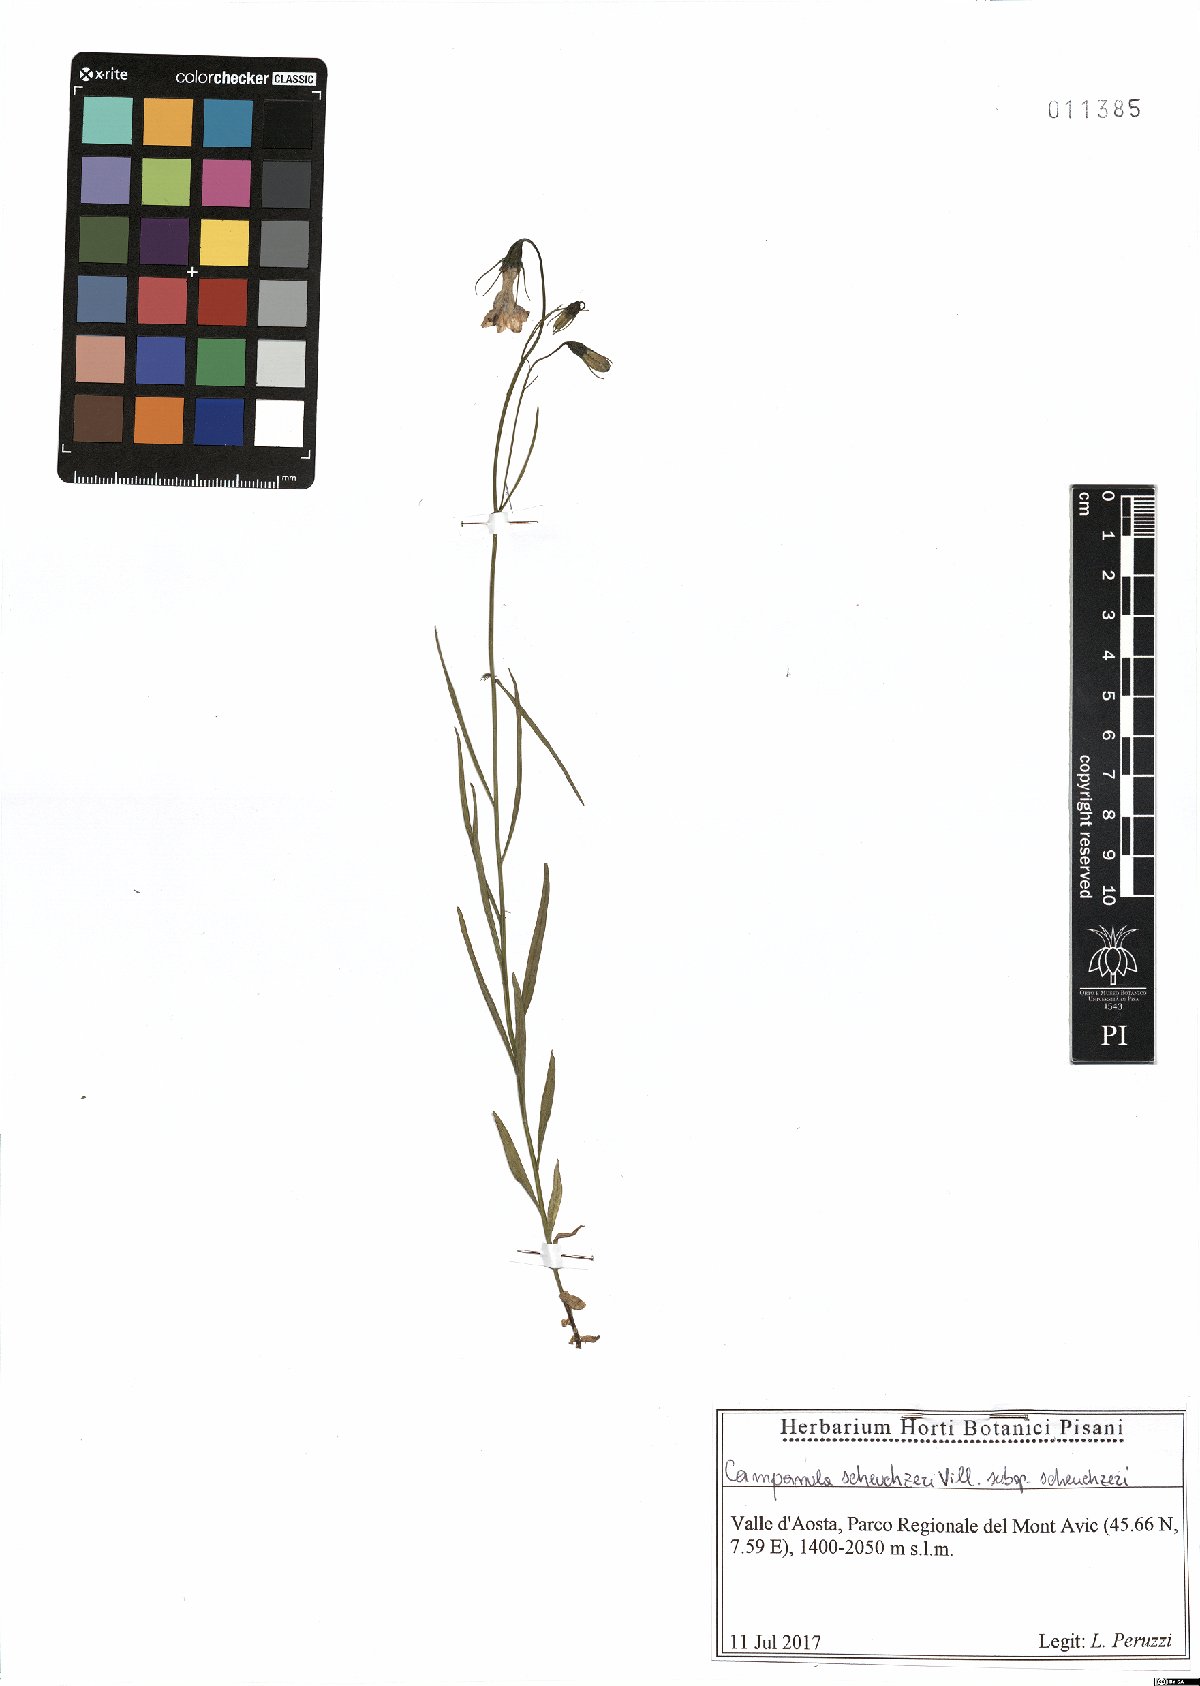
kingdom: Plantae
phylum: Tracheophyta
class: Magnoliopsida
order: Asterales
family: Campanulaceae
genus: Campanula
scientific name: Campanula scheuchzeri
